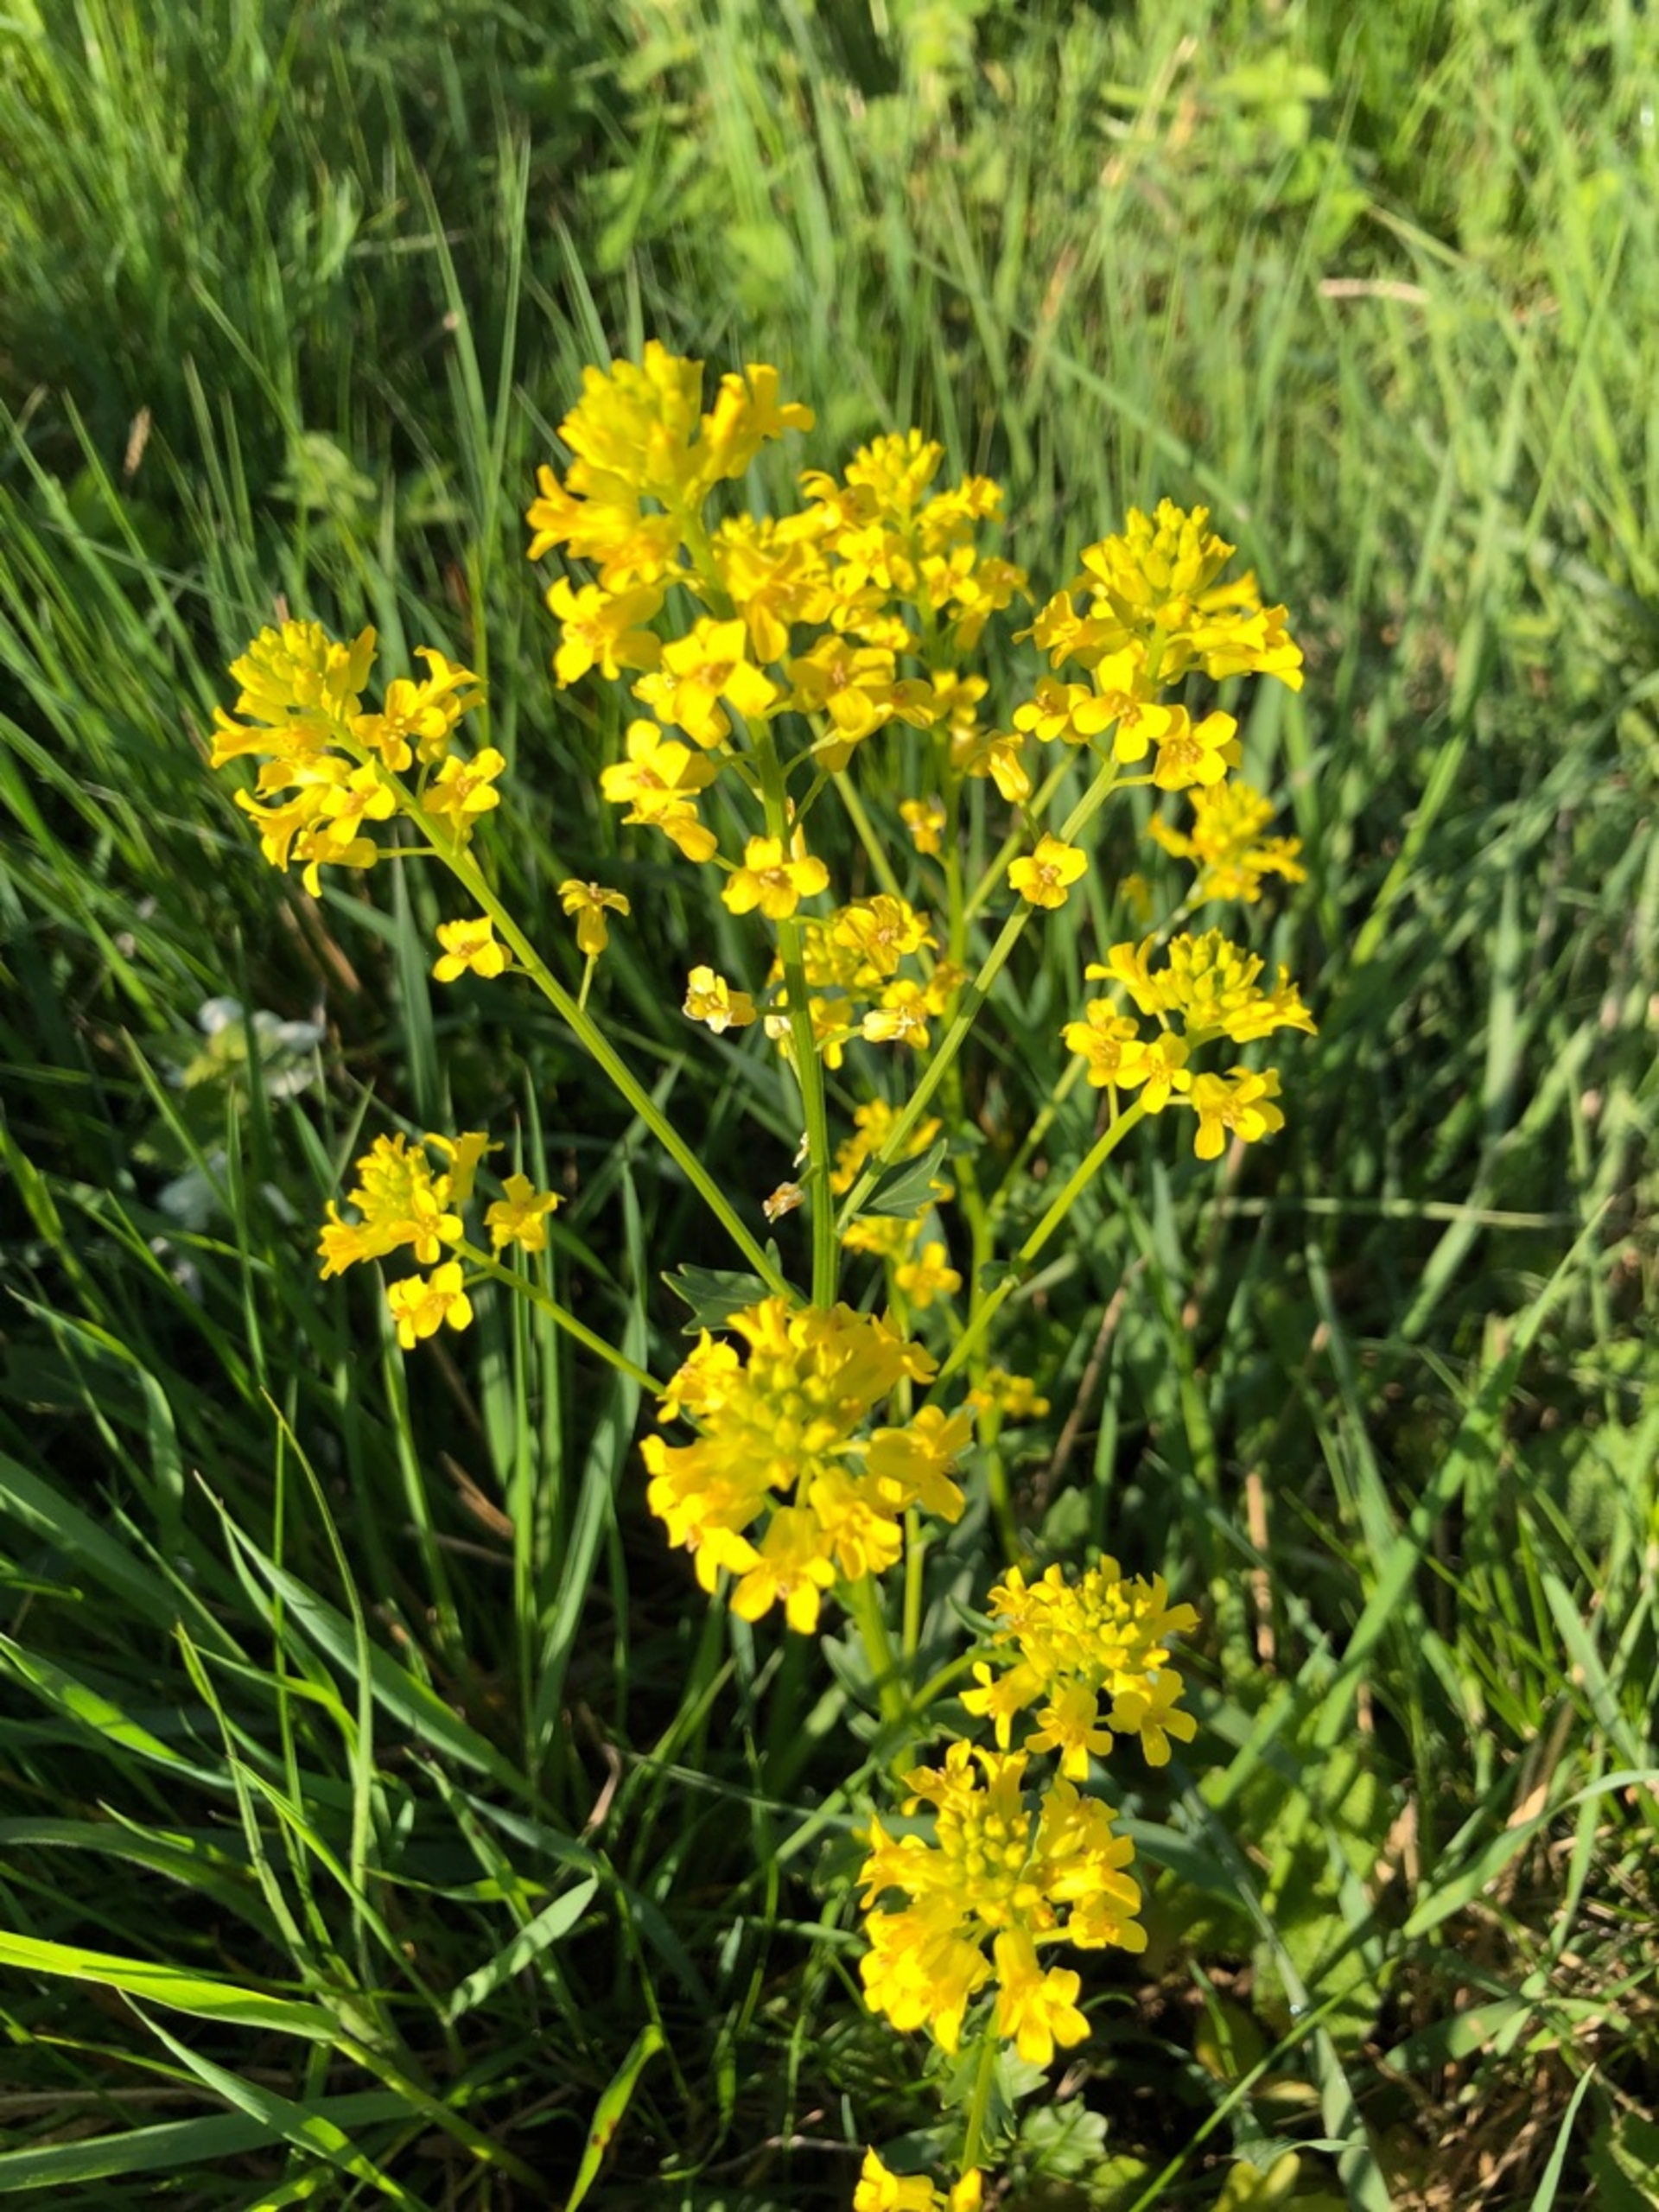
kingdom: Plantae
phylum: Tracheophyta
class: Magnoliopsida
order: Brassicales
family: Brassicaceae
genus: Barbarea
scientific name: Barbarea vulgaris
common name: Almindelig vinterkarse
